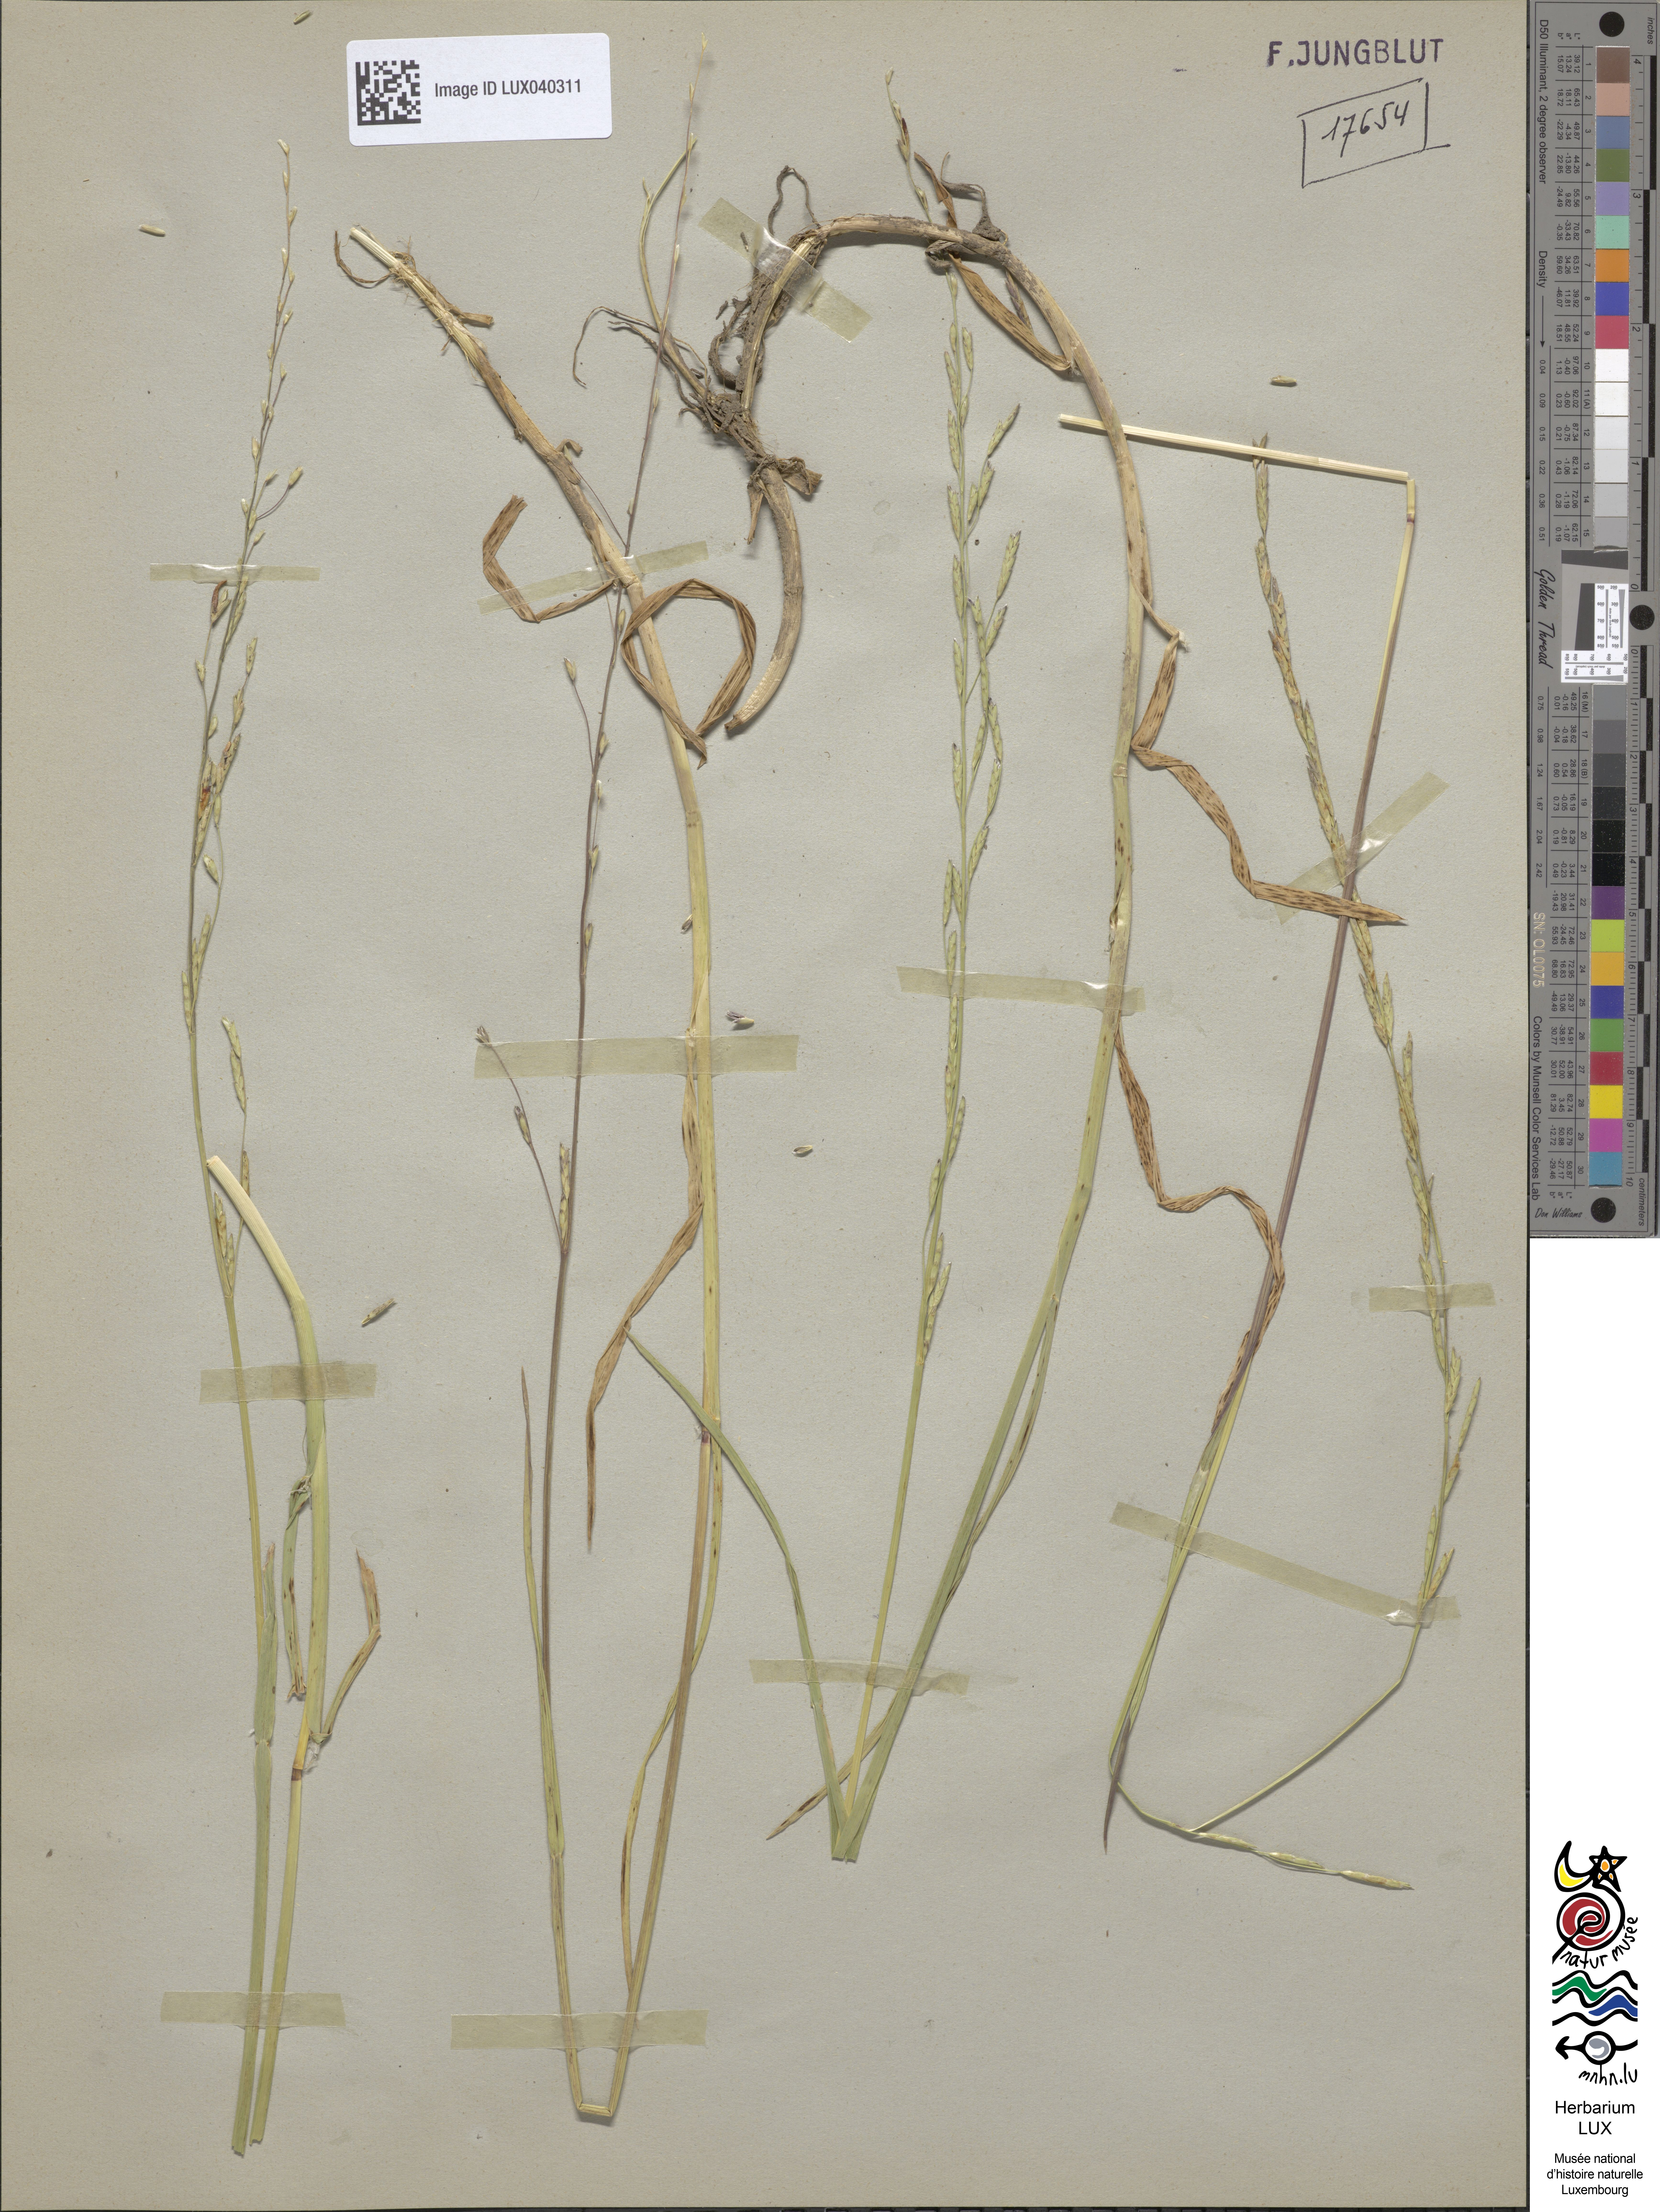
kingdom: Plantae
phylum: Tracheophyta
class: Liliopsida
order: Poales
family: Poaceae
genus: Glyceria
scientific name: Glyceria notata
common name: Plicate sweet-grass
